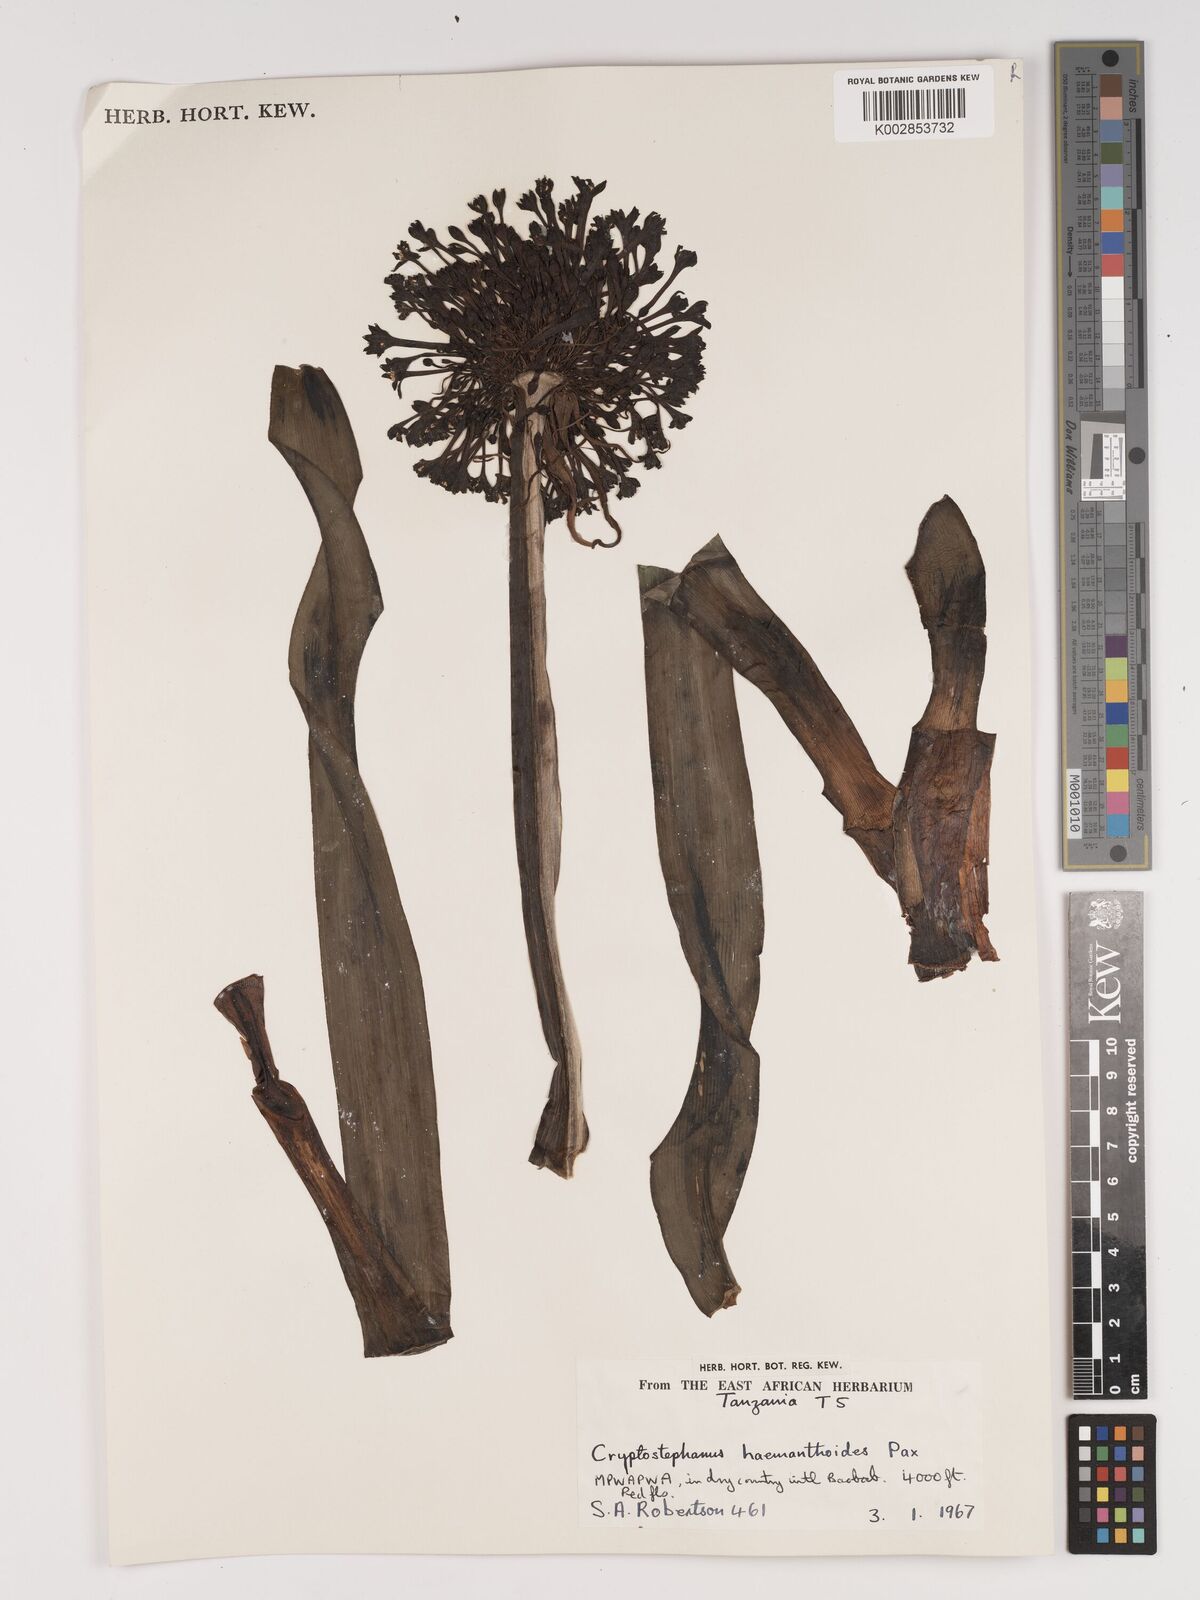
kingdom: Plantae
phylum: Tracheophyta
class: Liliopsida
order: Asparagales
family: Amaryllidaceae
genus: Cryptostephanus
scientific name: Cryptostephanus haemanthoides
